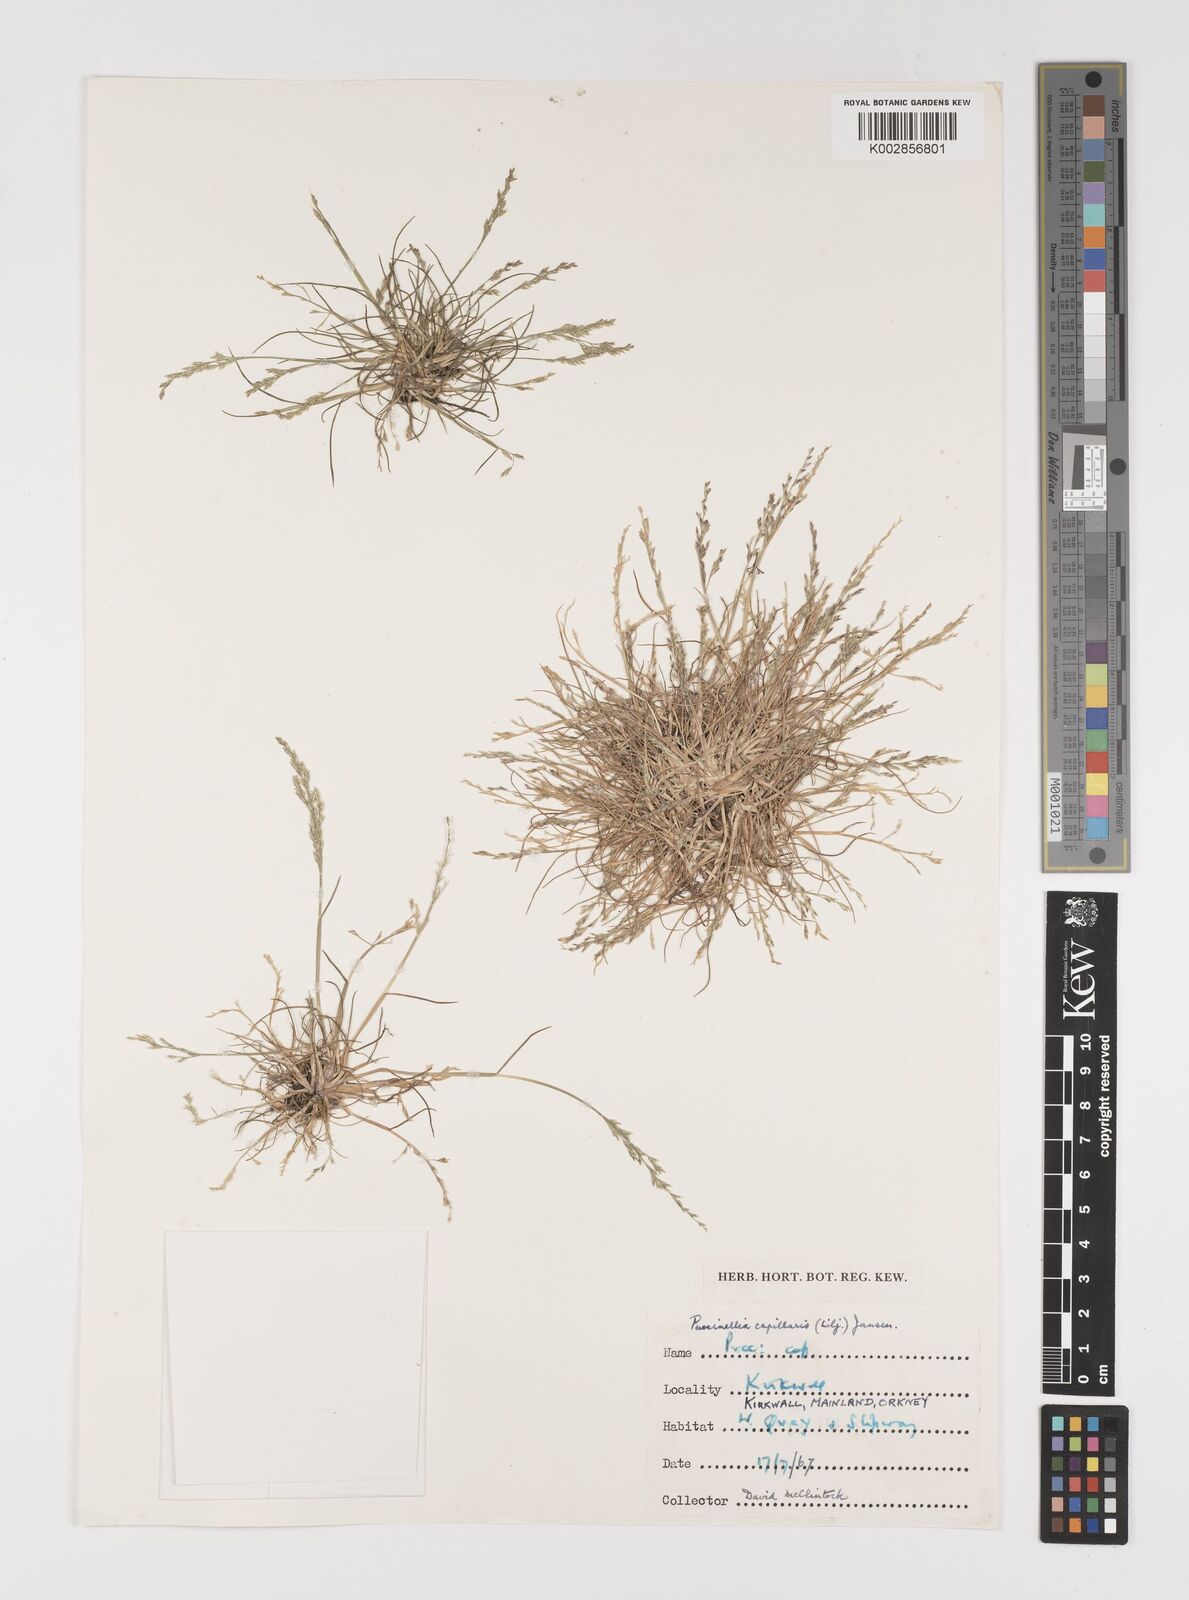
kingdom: Plantae
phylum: Tracheophyta
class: Liliopsida
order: Poales
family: Poaceae
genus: Puccinellia
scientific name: Puccinellia distans
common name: Weeping alkaligrass
